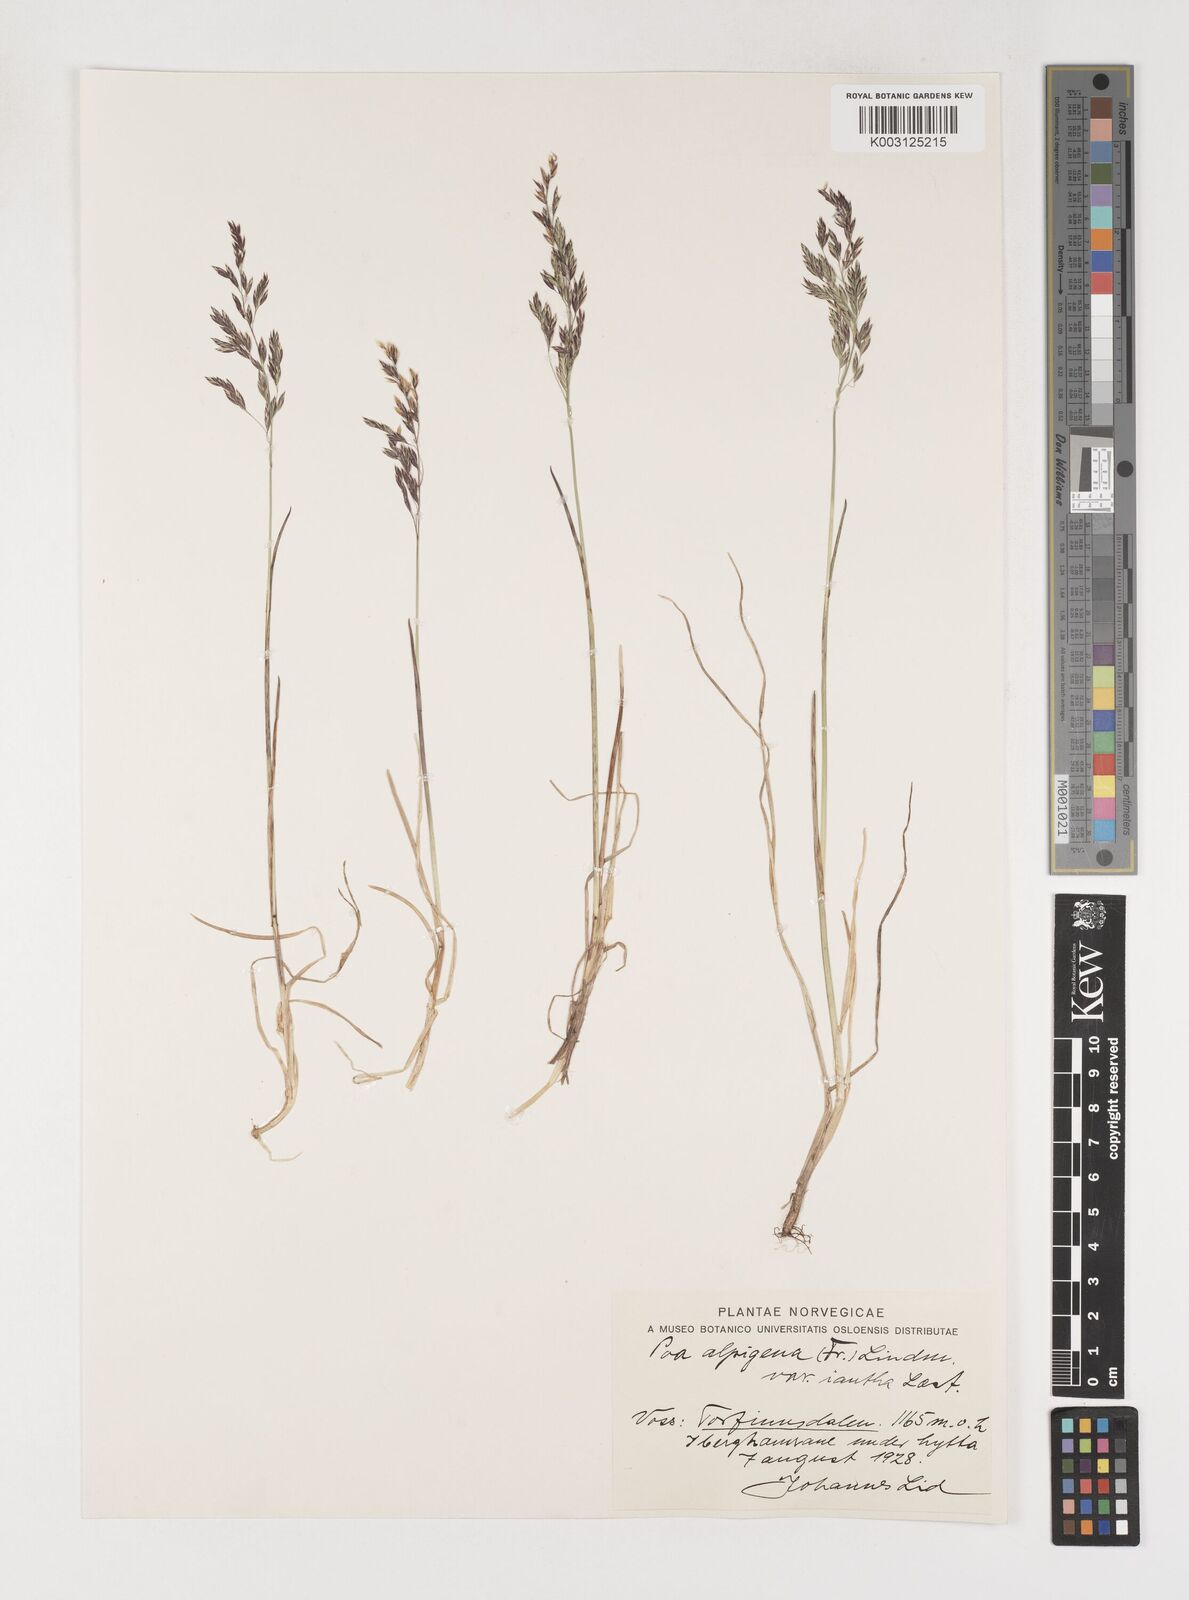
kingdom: Plantae
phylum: Tracheophyta
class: Liliopsida
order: Poales
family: Poaceae
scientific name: Poaceae
